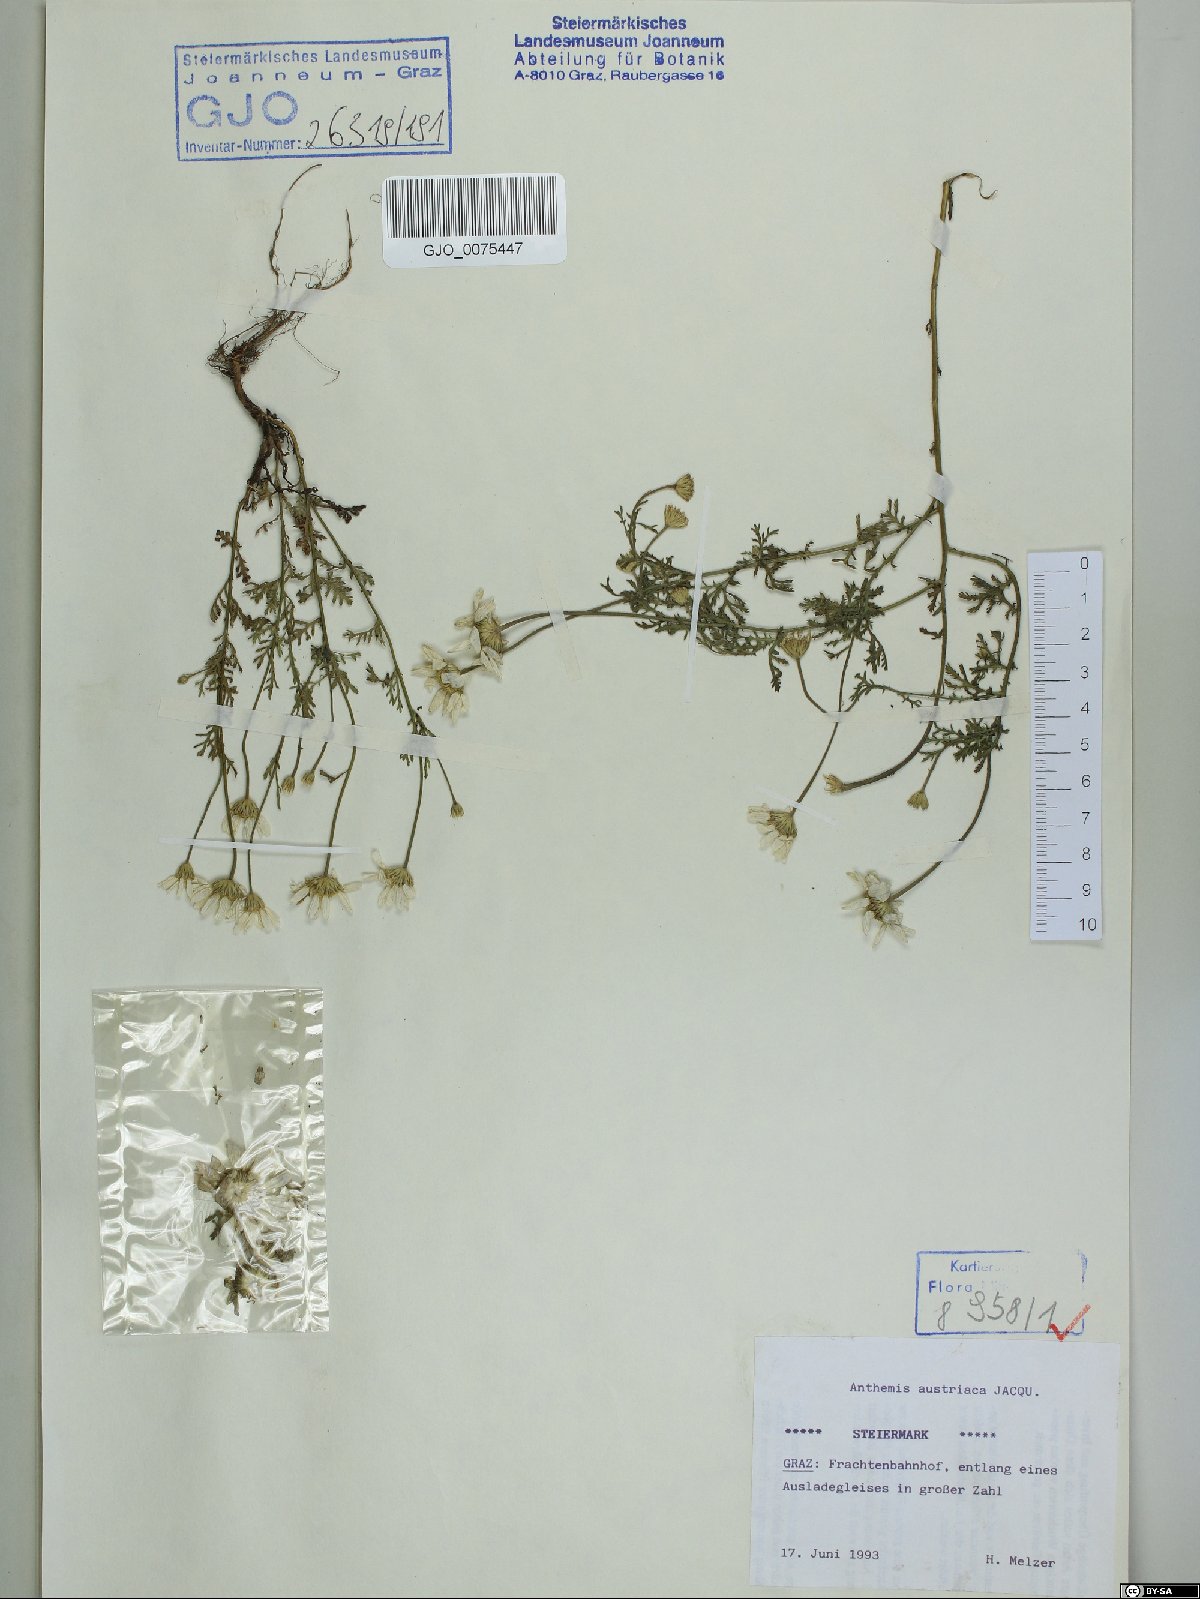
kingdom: Plantae
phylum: Tracheophyta
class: Magnoliopsida
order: Asterales
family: Asteraceae
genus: Cota
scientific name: Cota austriaca
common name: Austrian chamomile
